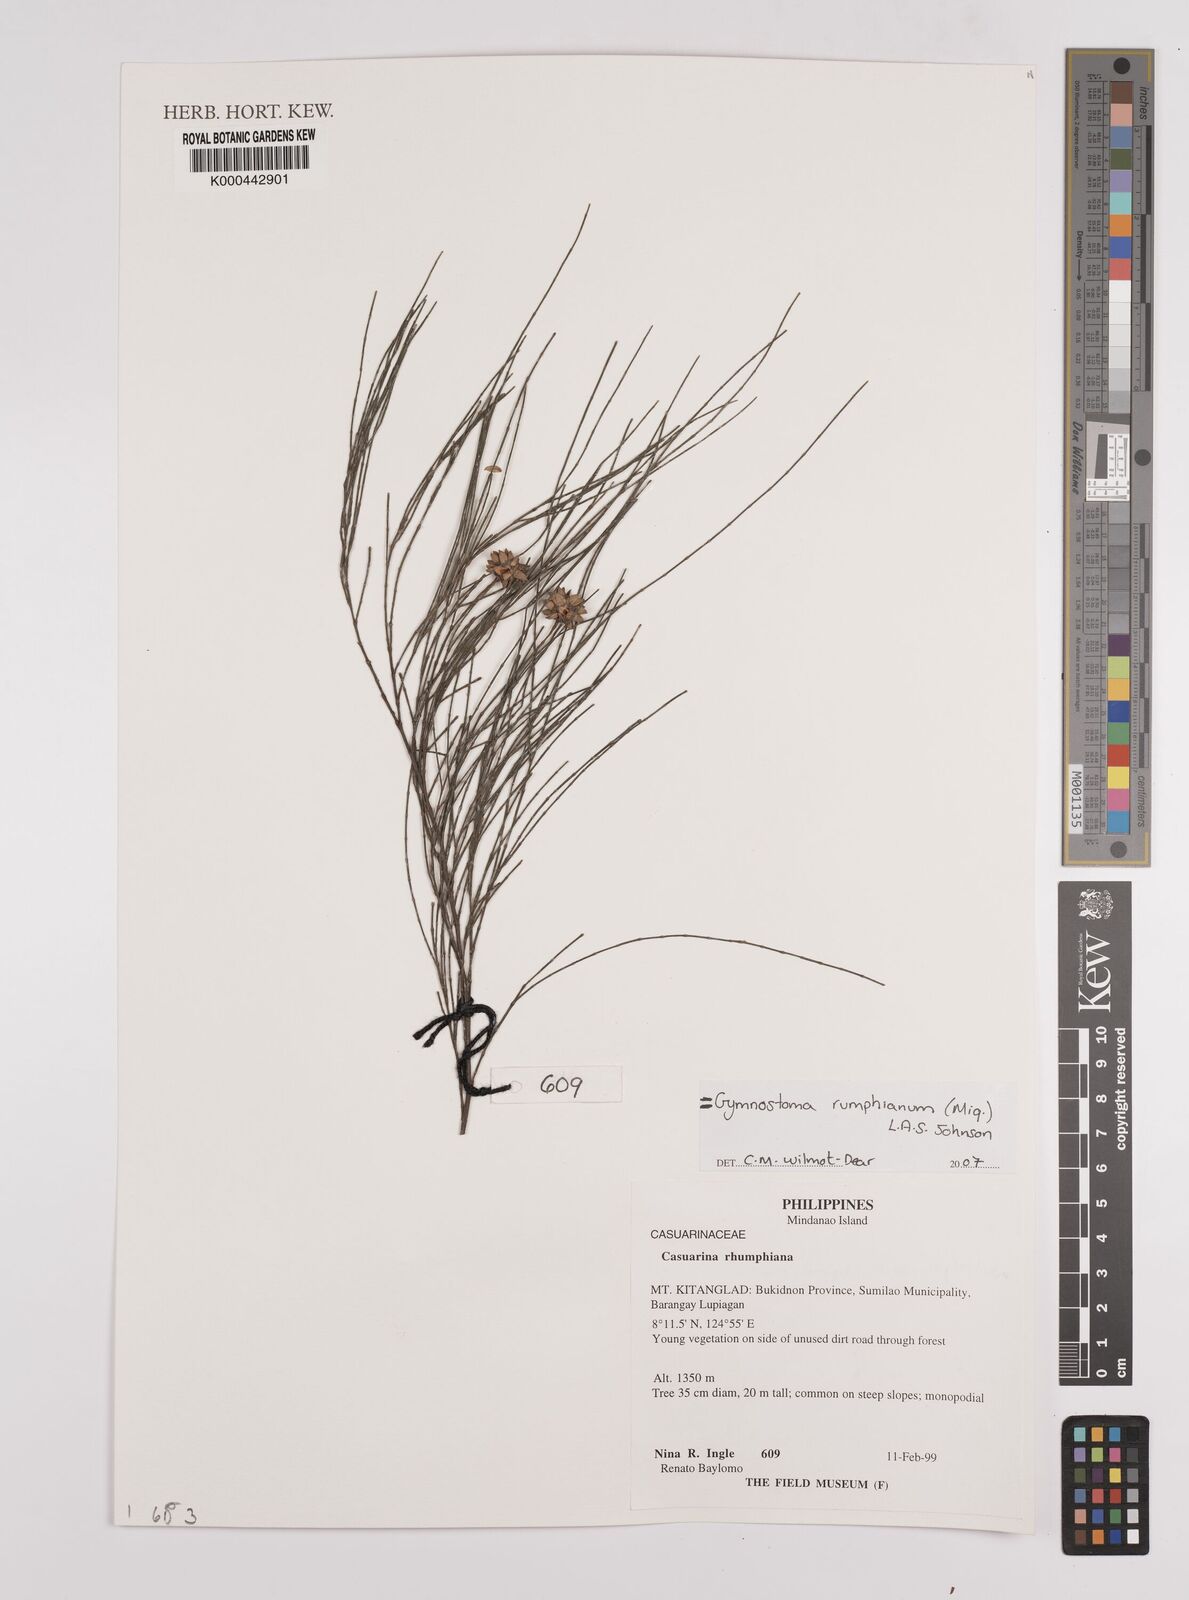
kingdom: Plantae
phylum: Tracheophyta
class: Magnoliopsida
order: Fagales
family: Casuarinaceae
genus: Gymnostoma
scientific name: Gymnostoma rumphianum
